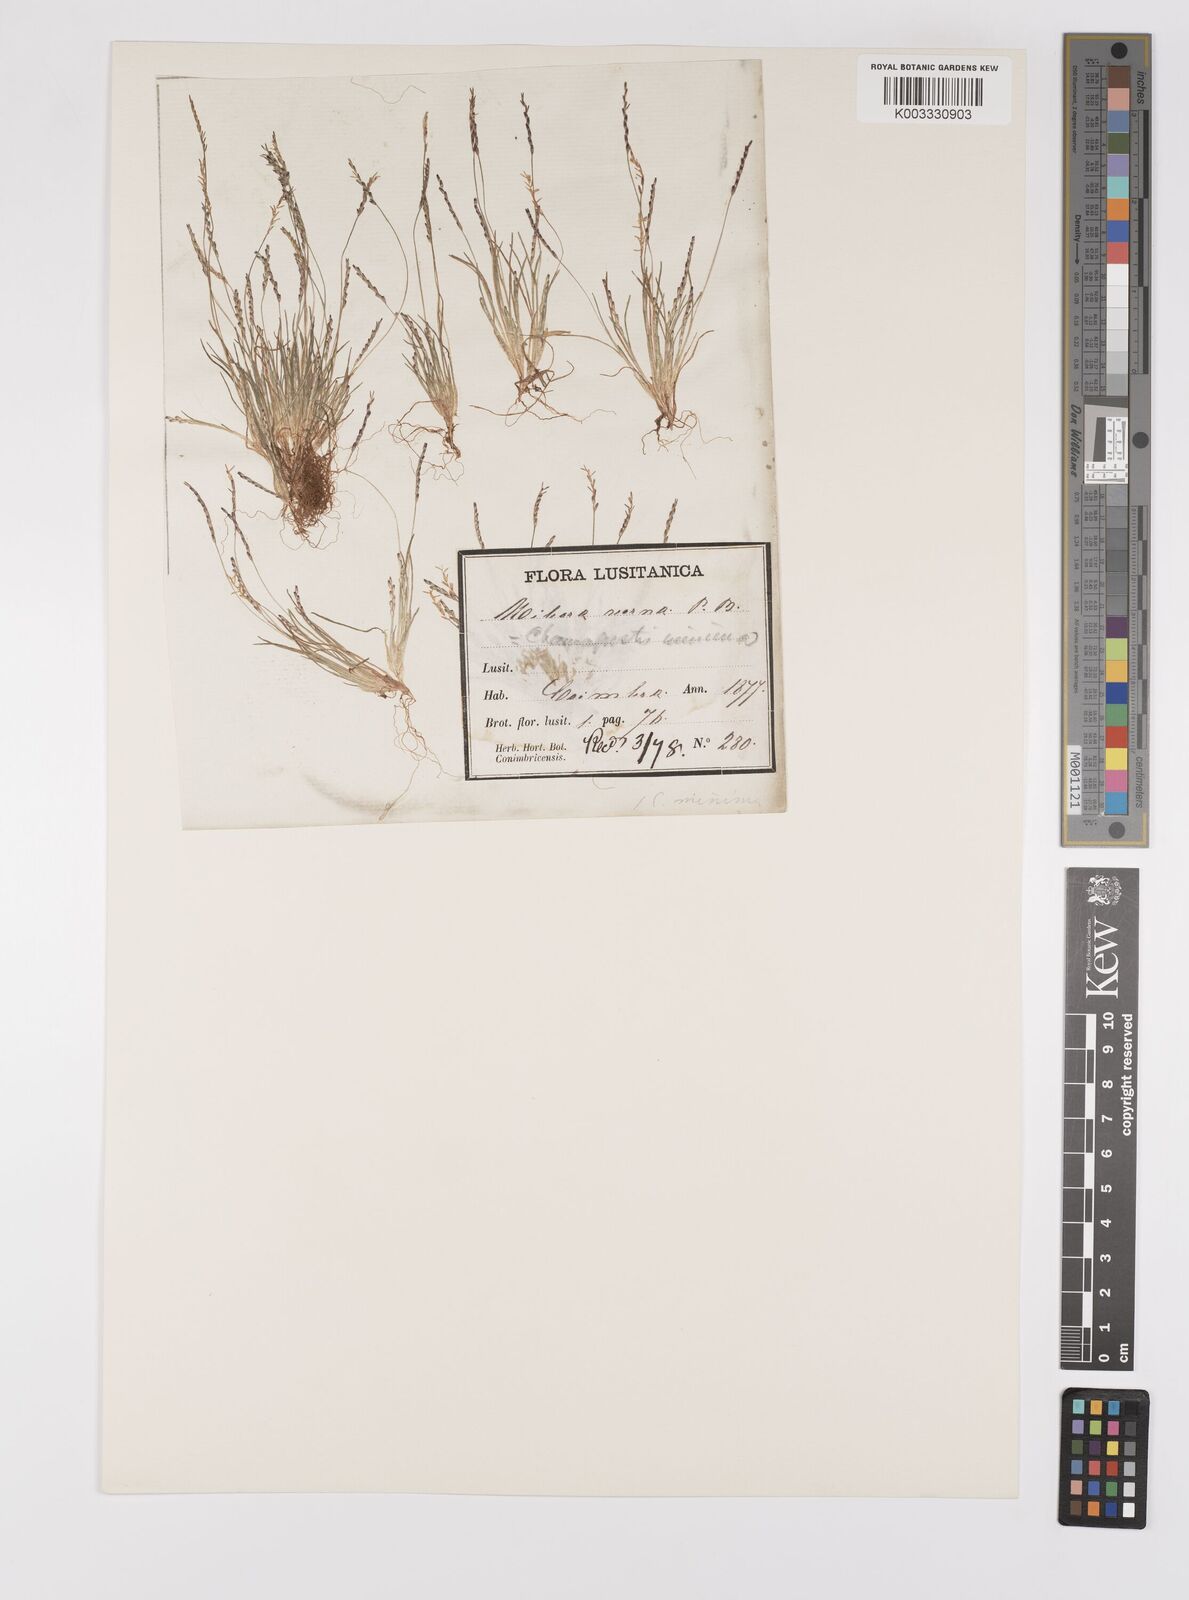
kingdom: Plantae
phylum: Tracheophyta
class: Liliopsida
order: Poales
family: Poaceae
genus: Mibora
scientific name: Mibora minima
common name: Early sand-grass
